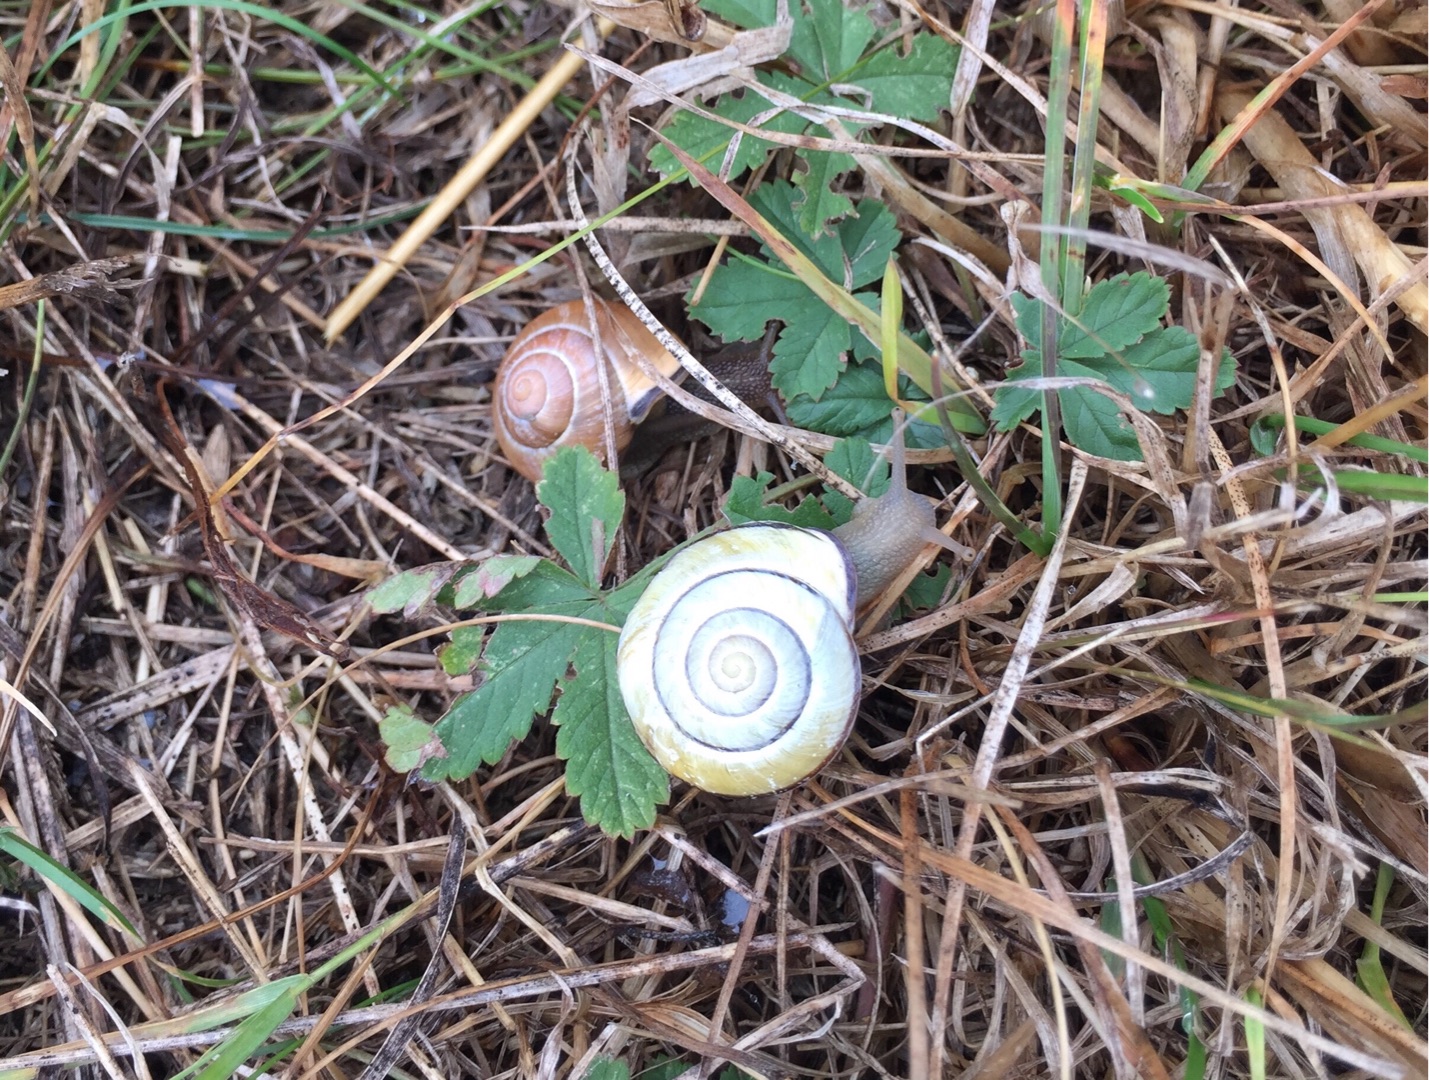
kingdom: Animalia
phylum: Mollusca
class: Gastropoda
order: Stylommatophora
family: Helicidae
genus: Cepaea
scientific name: Cepaea nemoralis
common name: Lundsnegl
